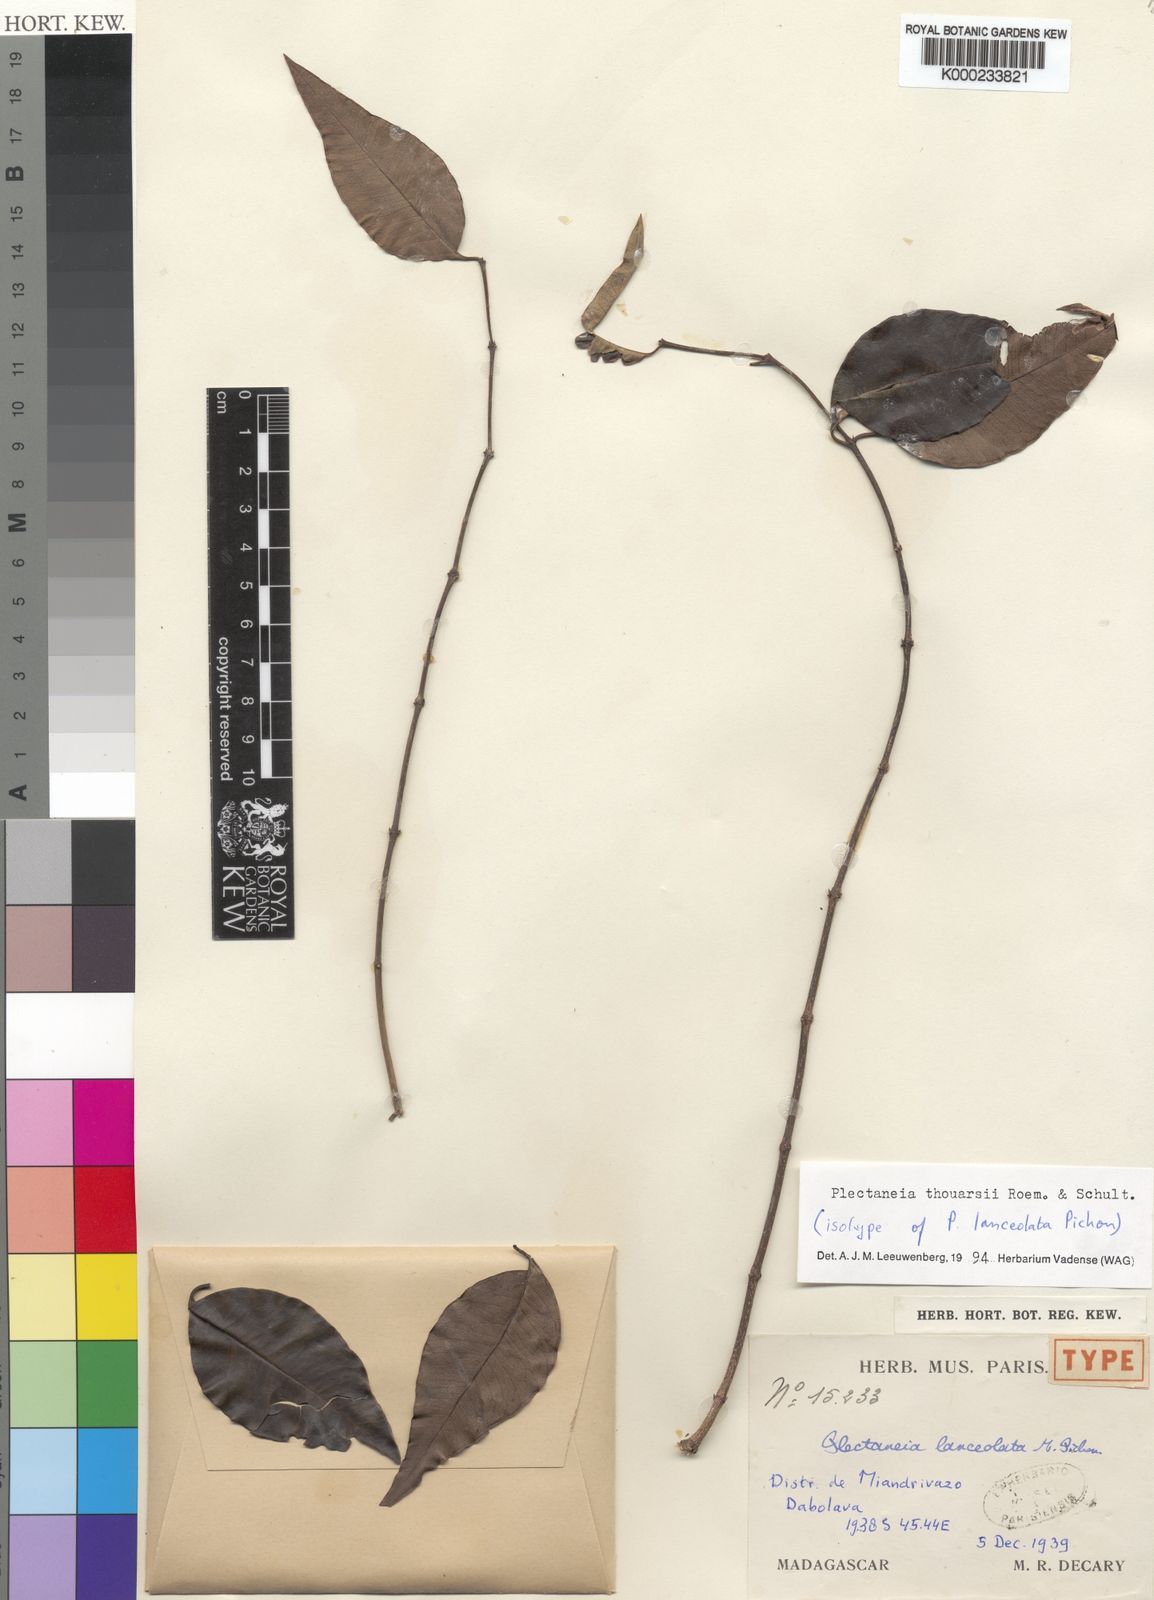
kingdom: Plantae
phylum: Tracheophyta
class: Magnoliopsida
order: Gentianales
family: Apocynaceae
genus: Plectaneia
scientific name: Plectaneia thouarsii
